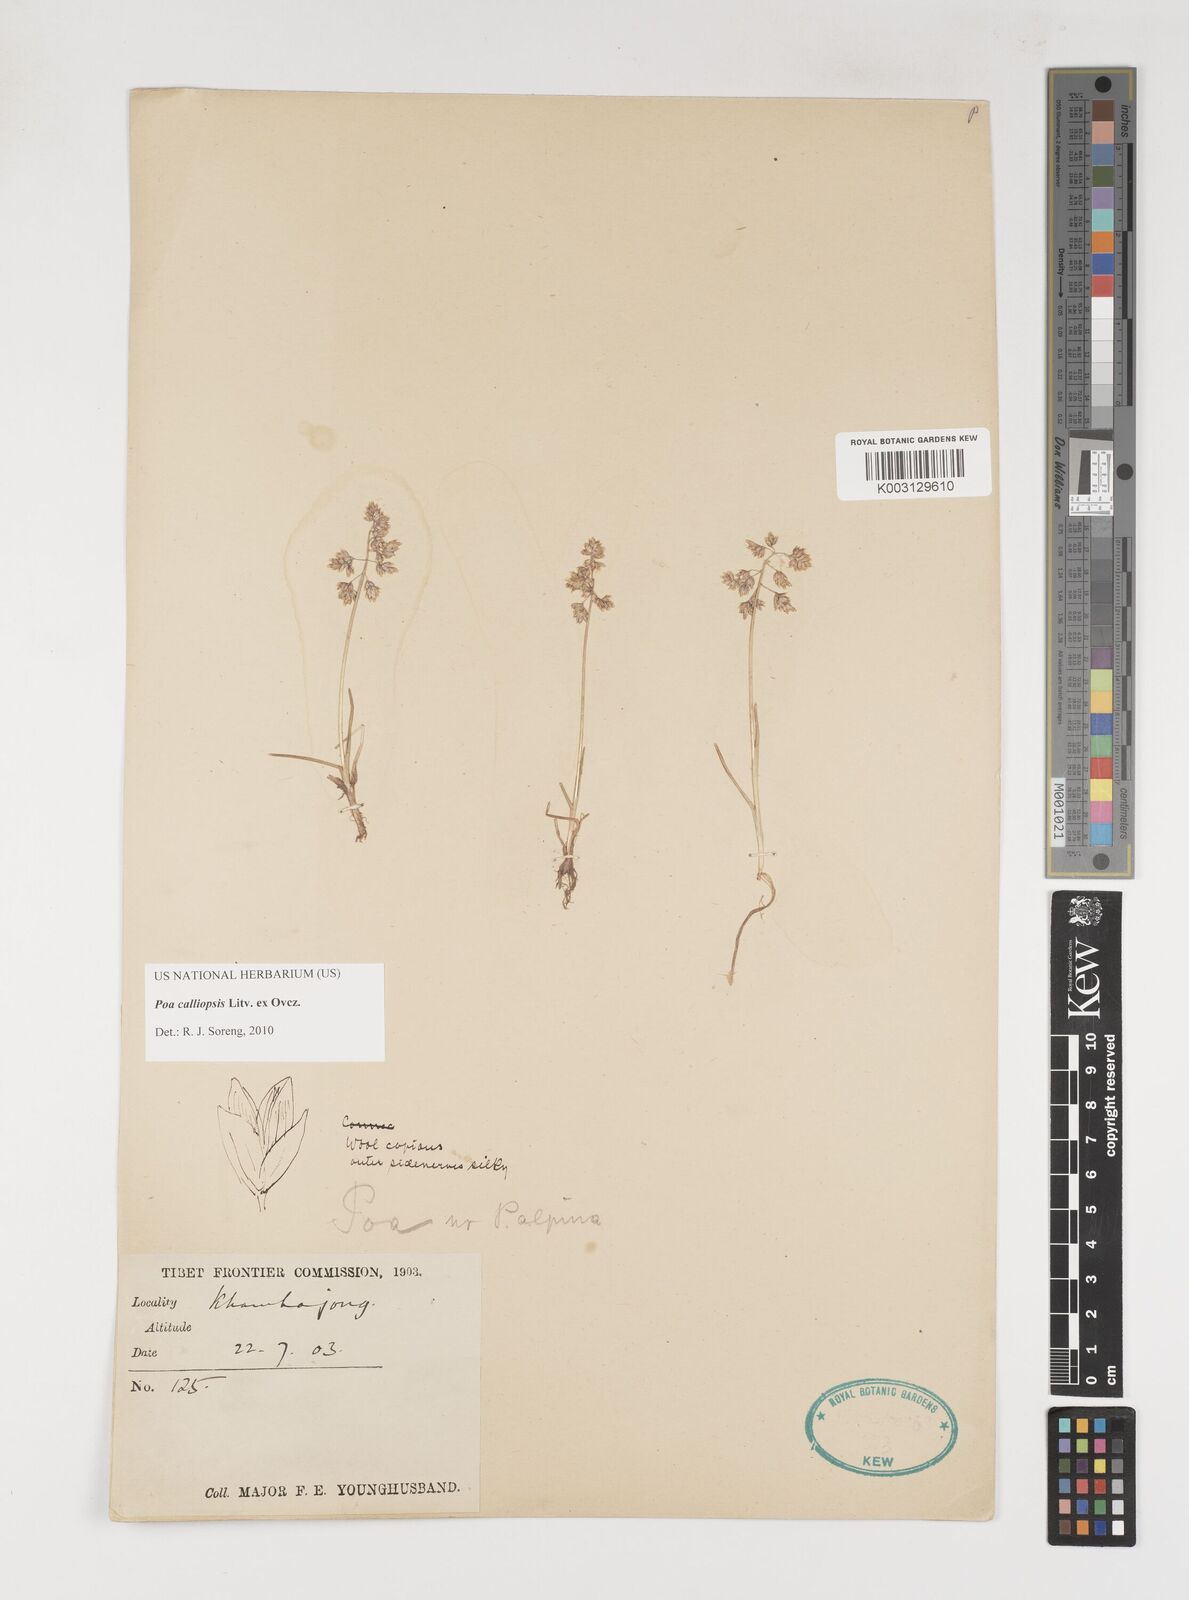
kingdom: Plantae
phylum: Tracheophyta
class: Liliopsida
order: Poales
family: Poaceae
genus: Poa
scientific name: Poa calliopsis
